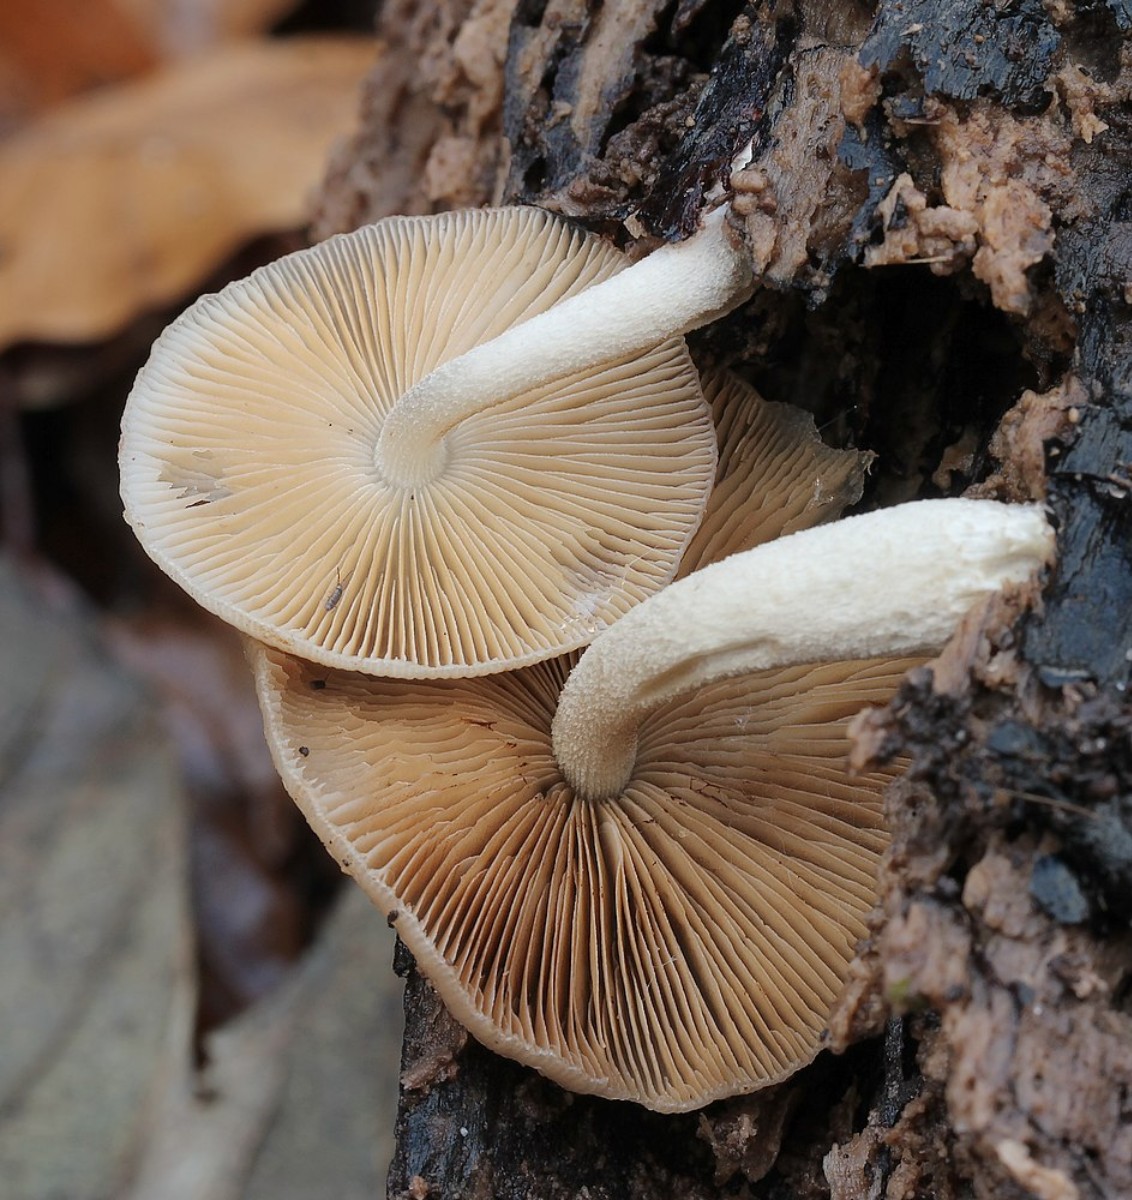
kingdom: Fungi
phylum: Basidiomycota
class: Agaricomycetes
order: Agaricales
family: Bolbitiaceae
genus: Bolbitius
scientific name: Bolbitius reticulatus
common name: netåret gulhat
